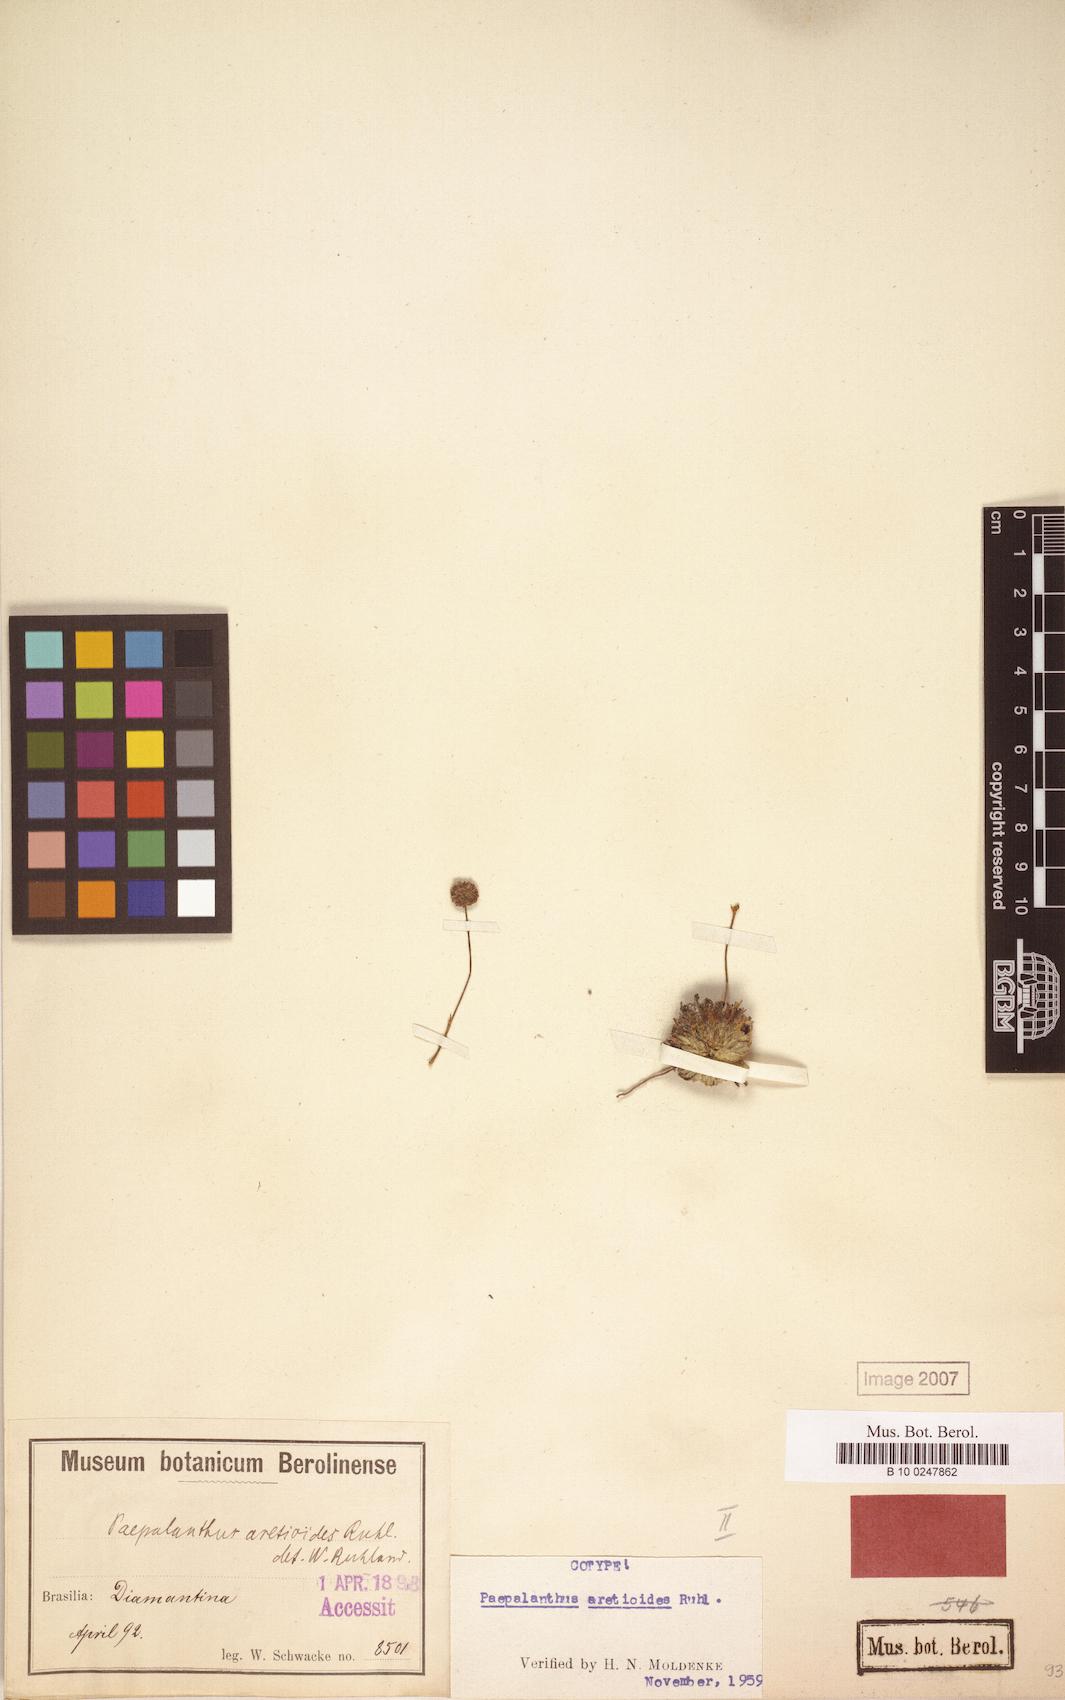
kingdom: Plantae
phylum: Tracheophyta
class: Liliopsida
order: Poales
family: Eriocaulaceae
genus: Paepalanthus
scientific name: Paepalanthus aretioides
